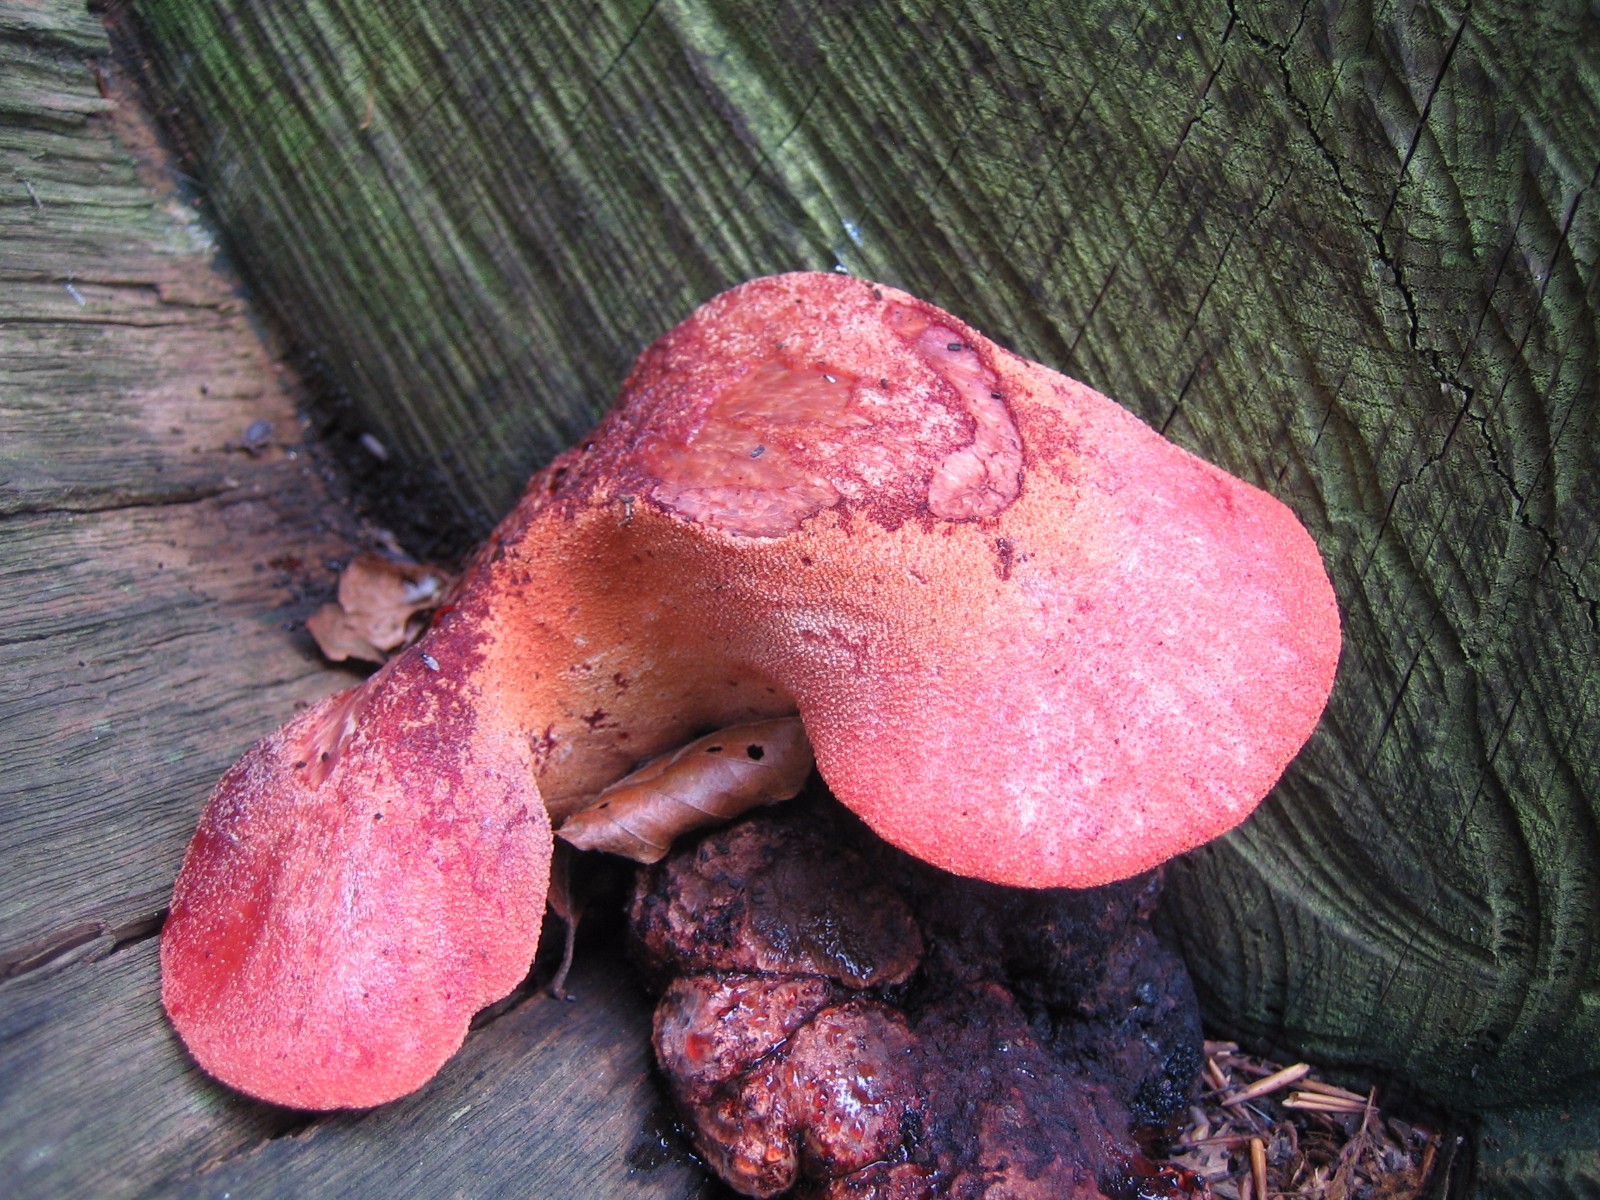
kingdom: Fungi
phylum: Basidiomycota
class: Agaricomycetes
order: Agaricales
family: Fistulinaceae
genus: Fistulina
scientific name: Fistulina hepatica
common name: oksetunge
